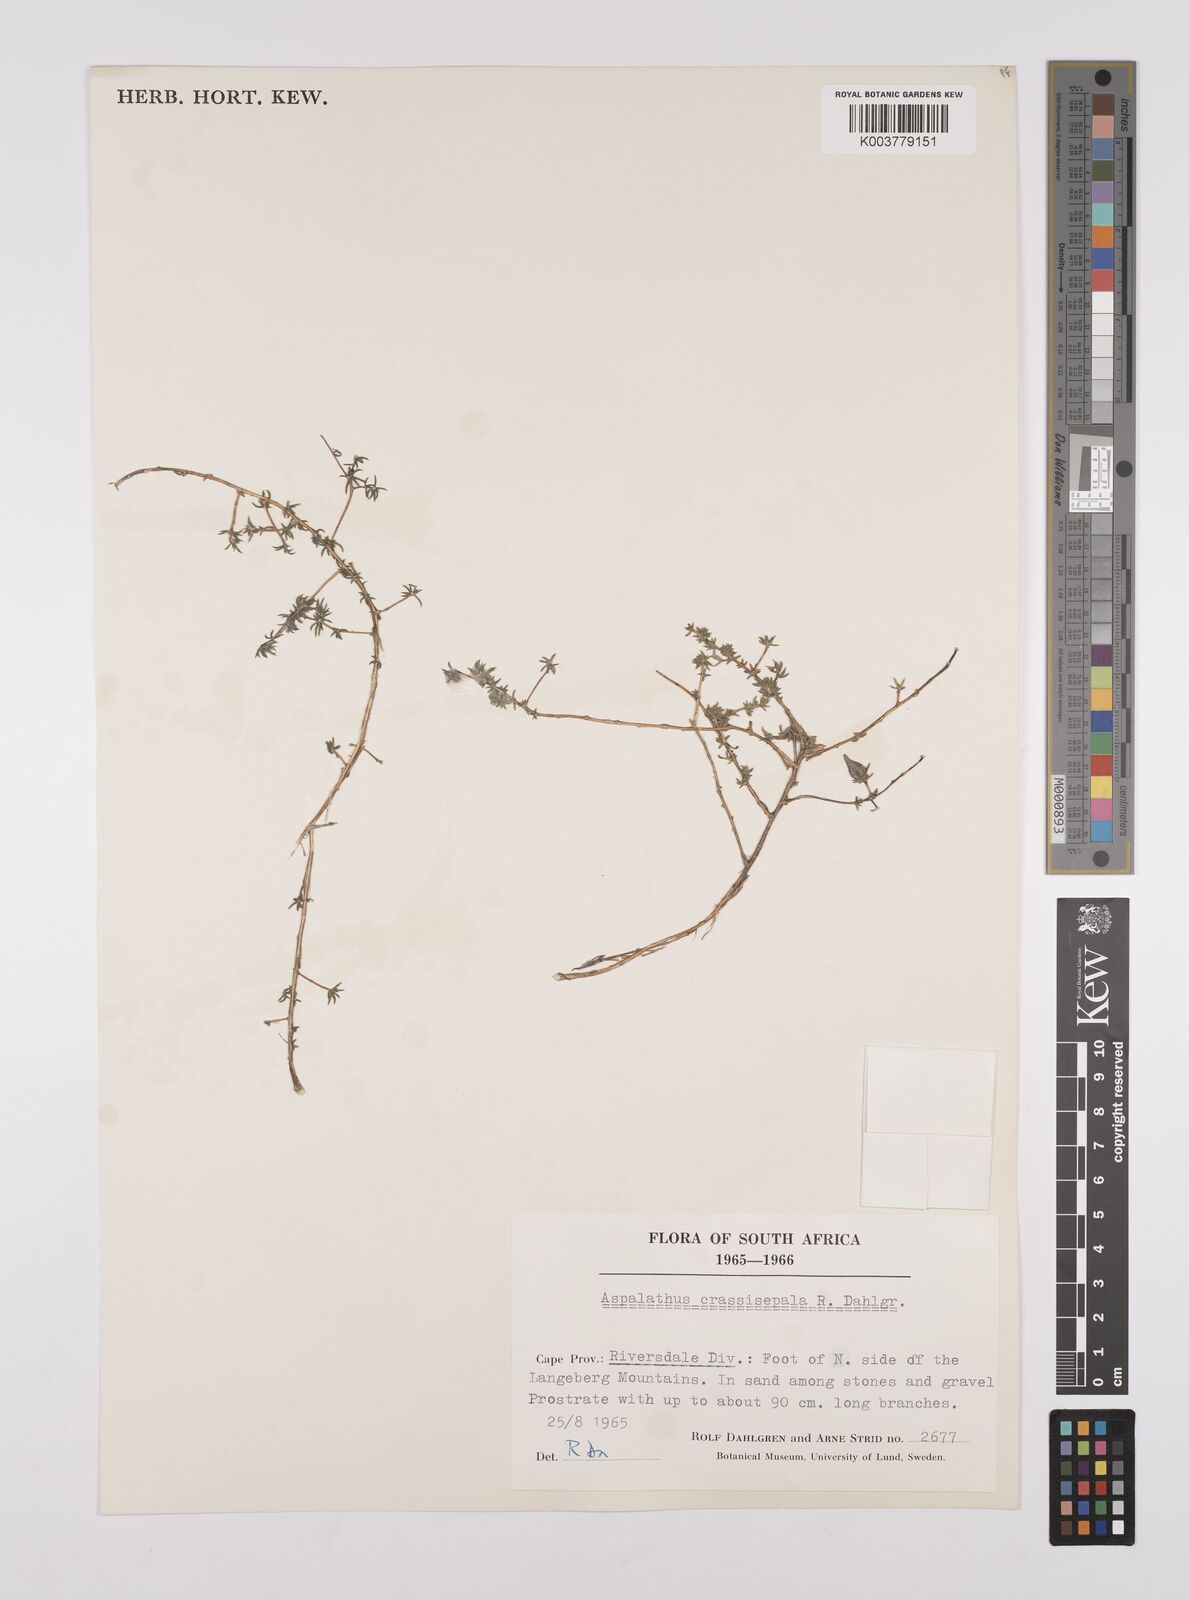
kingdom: Plantae
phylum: Tracheophyta
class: Magnoliopsida
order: Fabales
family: Fabaceae
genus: Aspalathus
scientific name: Aspalathus crassisepala
